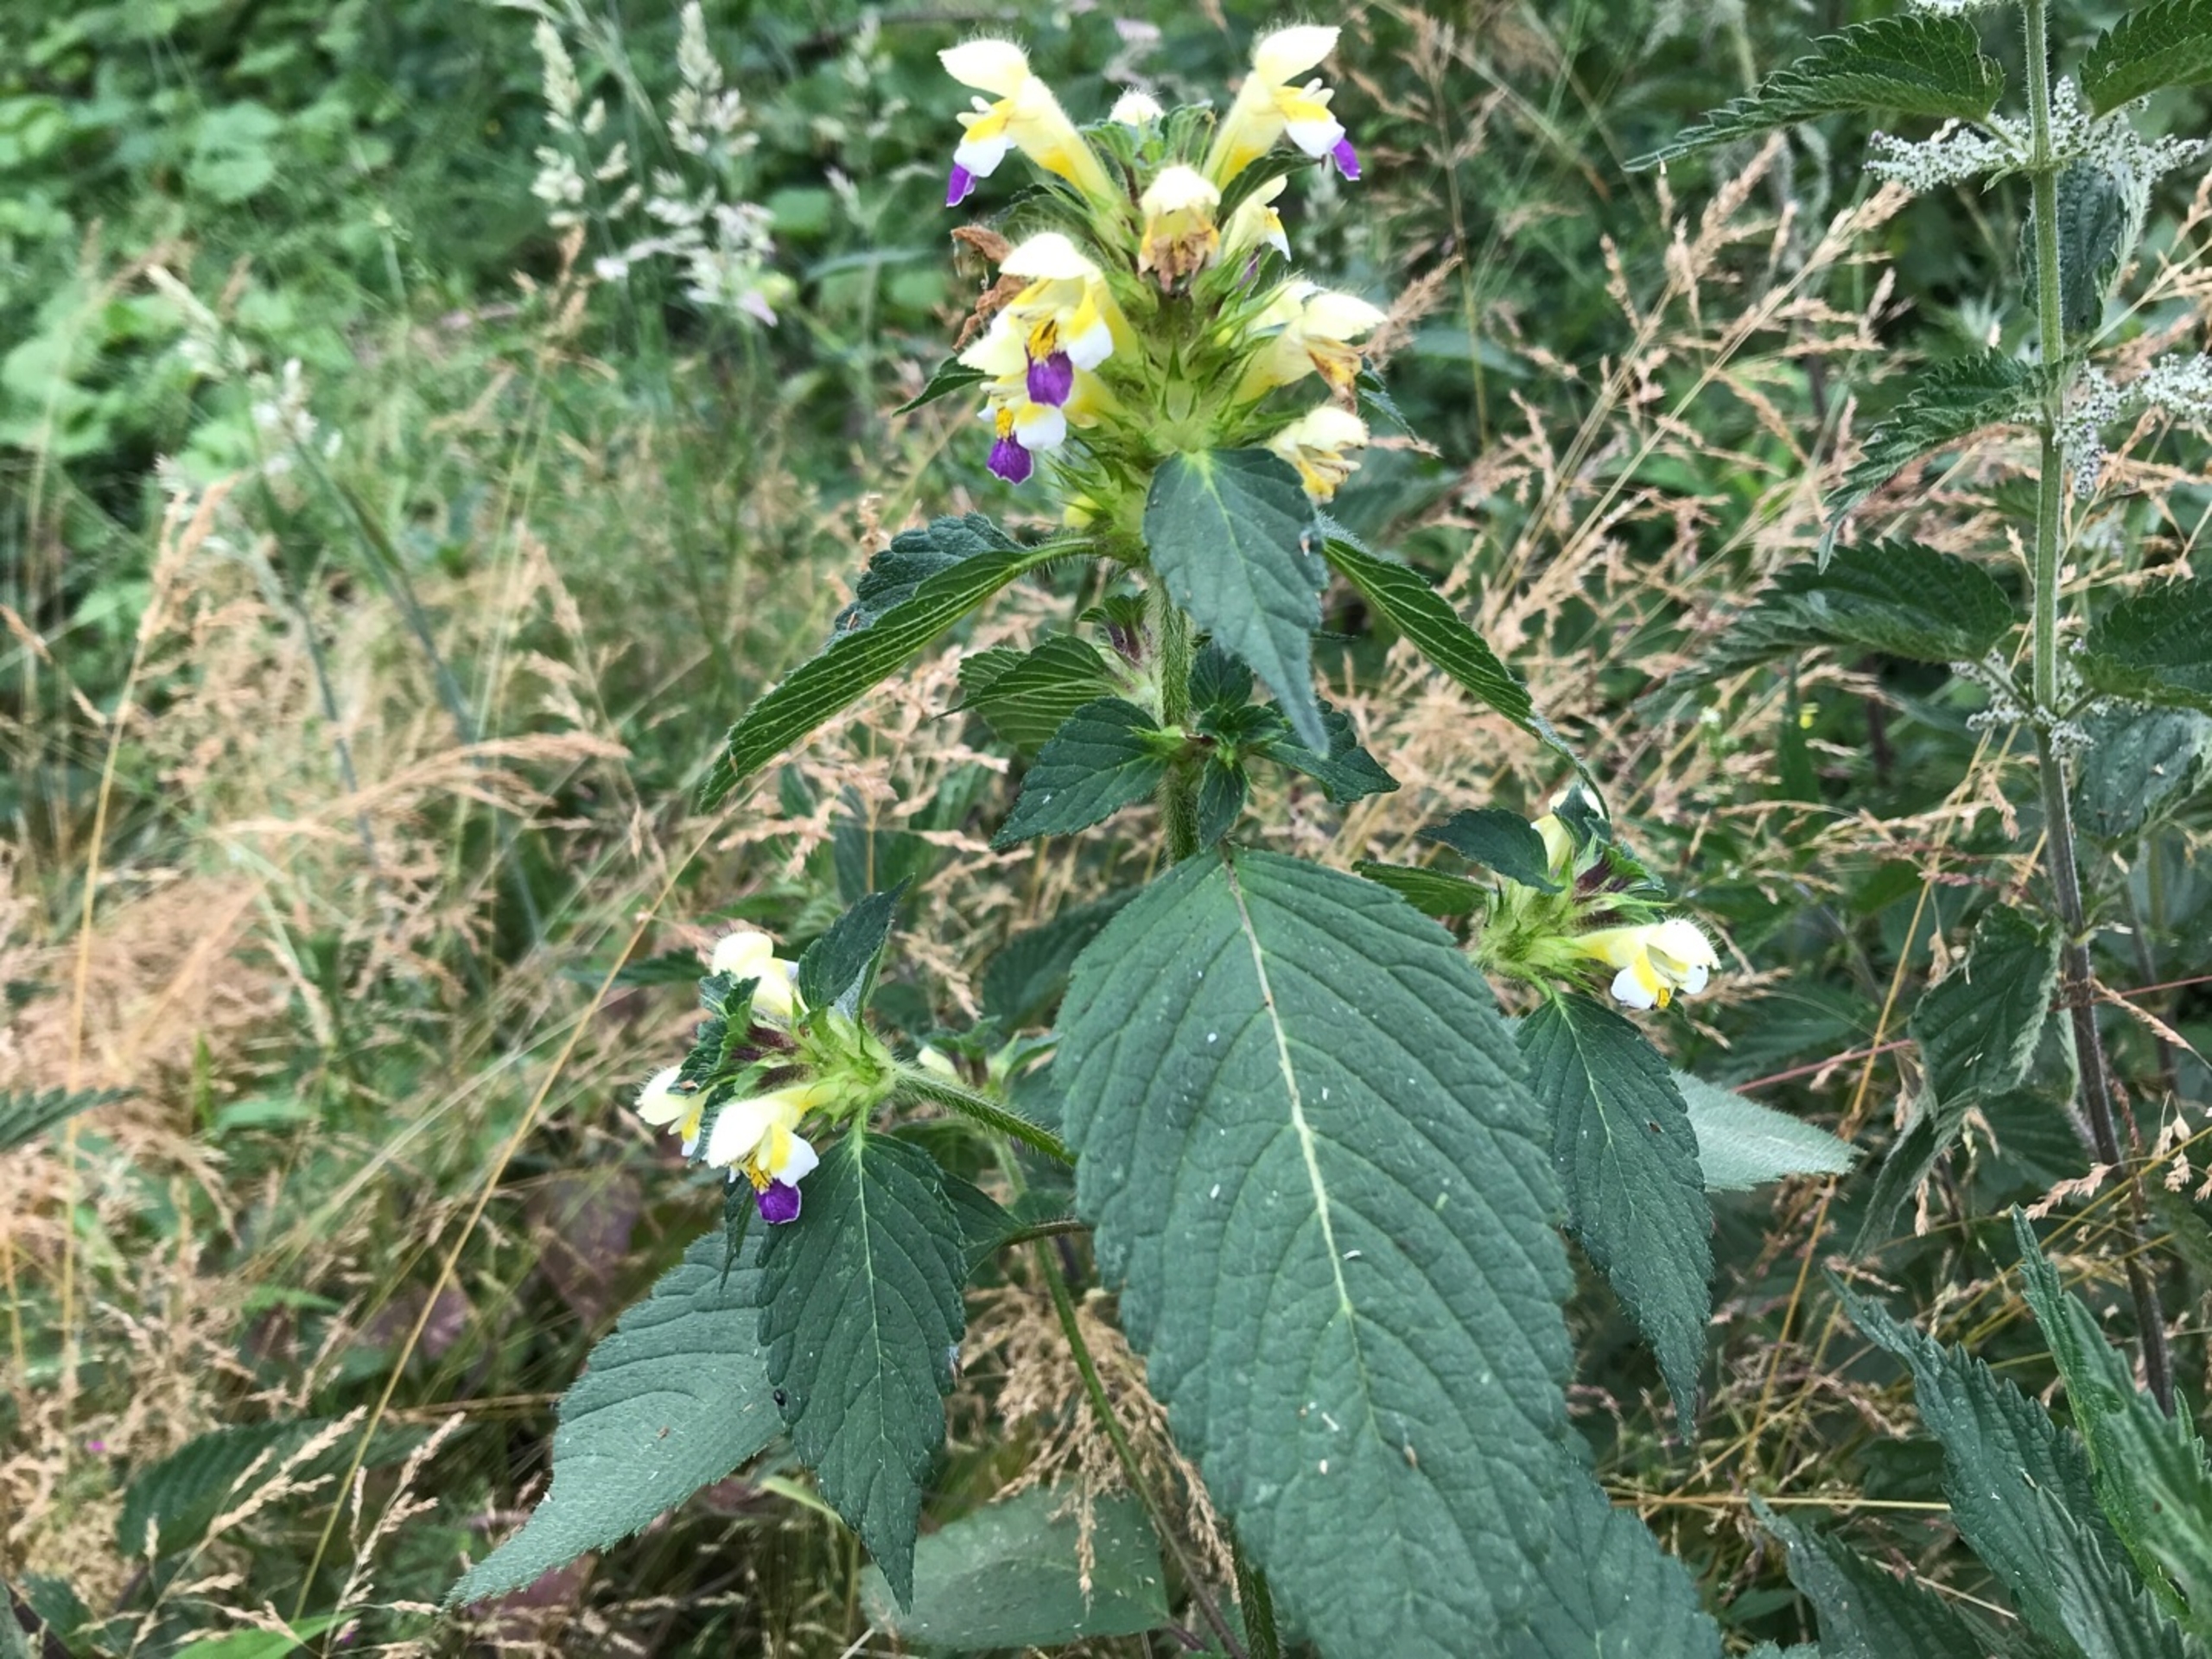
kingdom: Plantae
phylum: Tracheophyta
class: Magnoliopsida
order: Lamiales
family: Lamiaceae
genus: Galeopsis
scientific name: Galeopsis speciosa
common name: Hamp-hanekro
